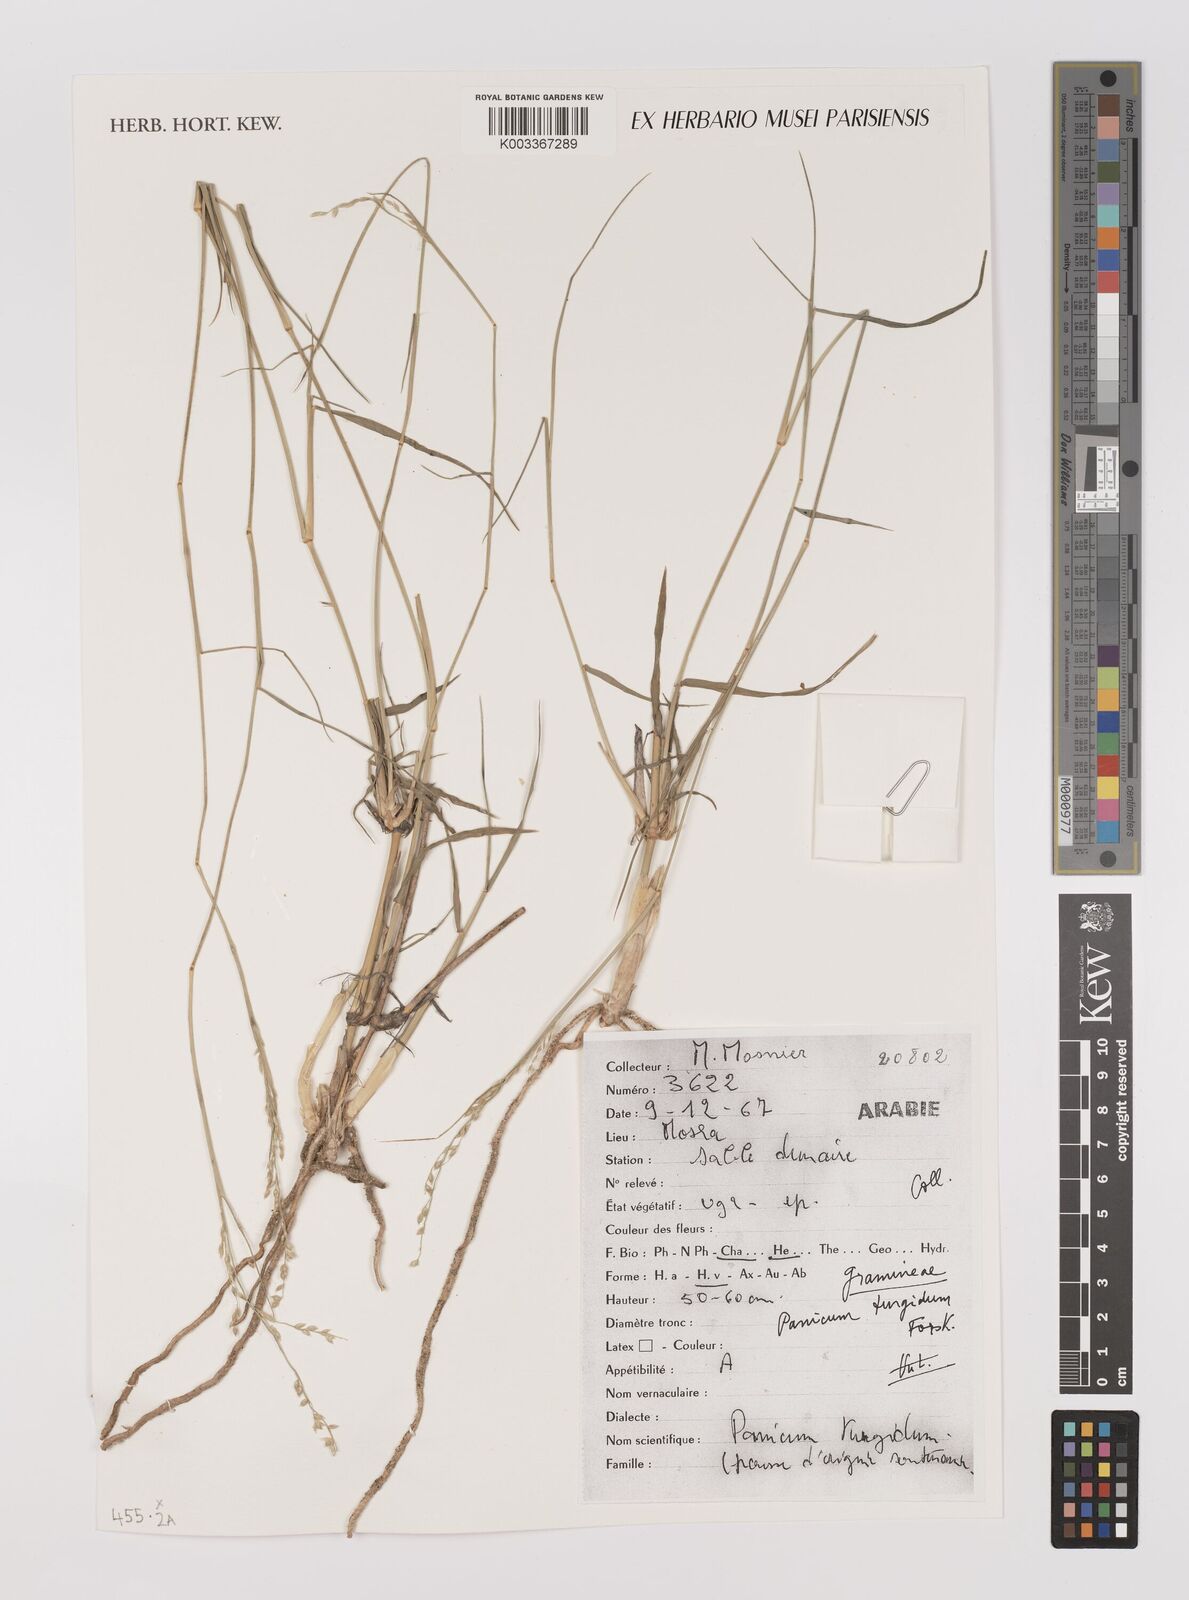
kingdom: Plantae
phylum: Tracheophyta
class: Liliopsida
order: Poales
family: Poaceae
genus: Panicum
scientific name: Panicum turgidum
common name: Desert grass
